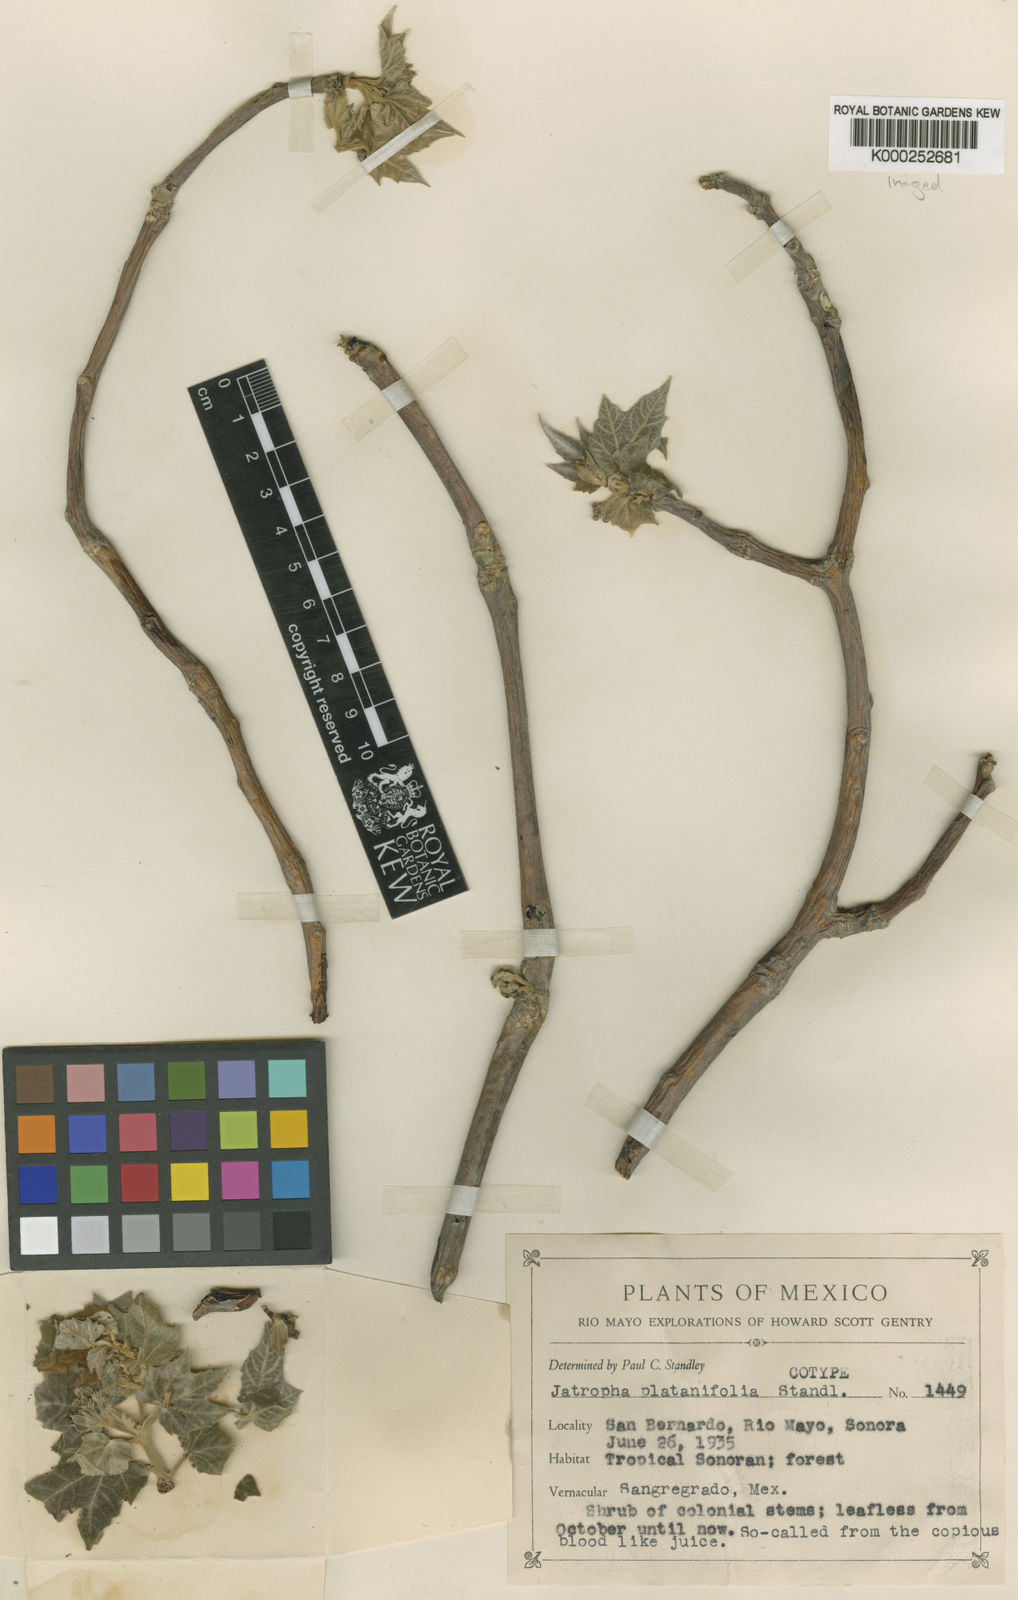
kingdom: Plantae
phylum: Tracheophyta
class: Magnoliopsida
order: Malpighiales
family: Euphorbiaceae
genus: Jatropha
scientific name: Jatropha malacophylla
